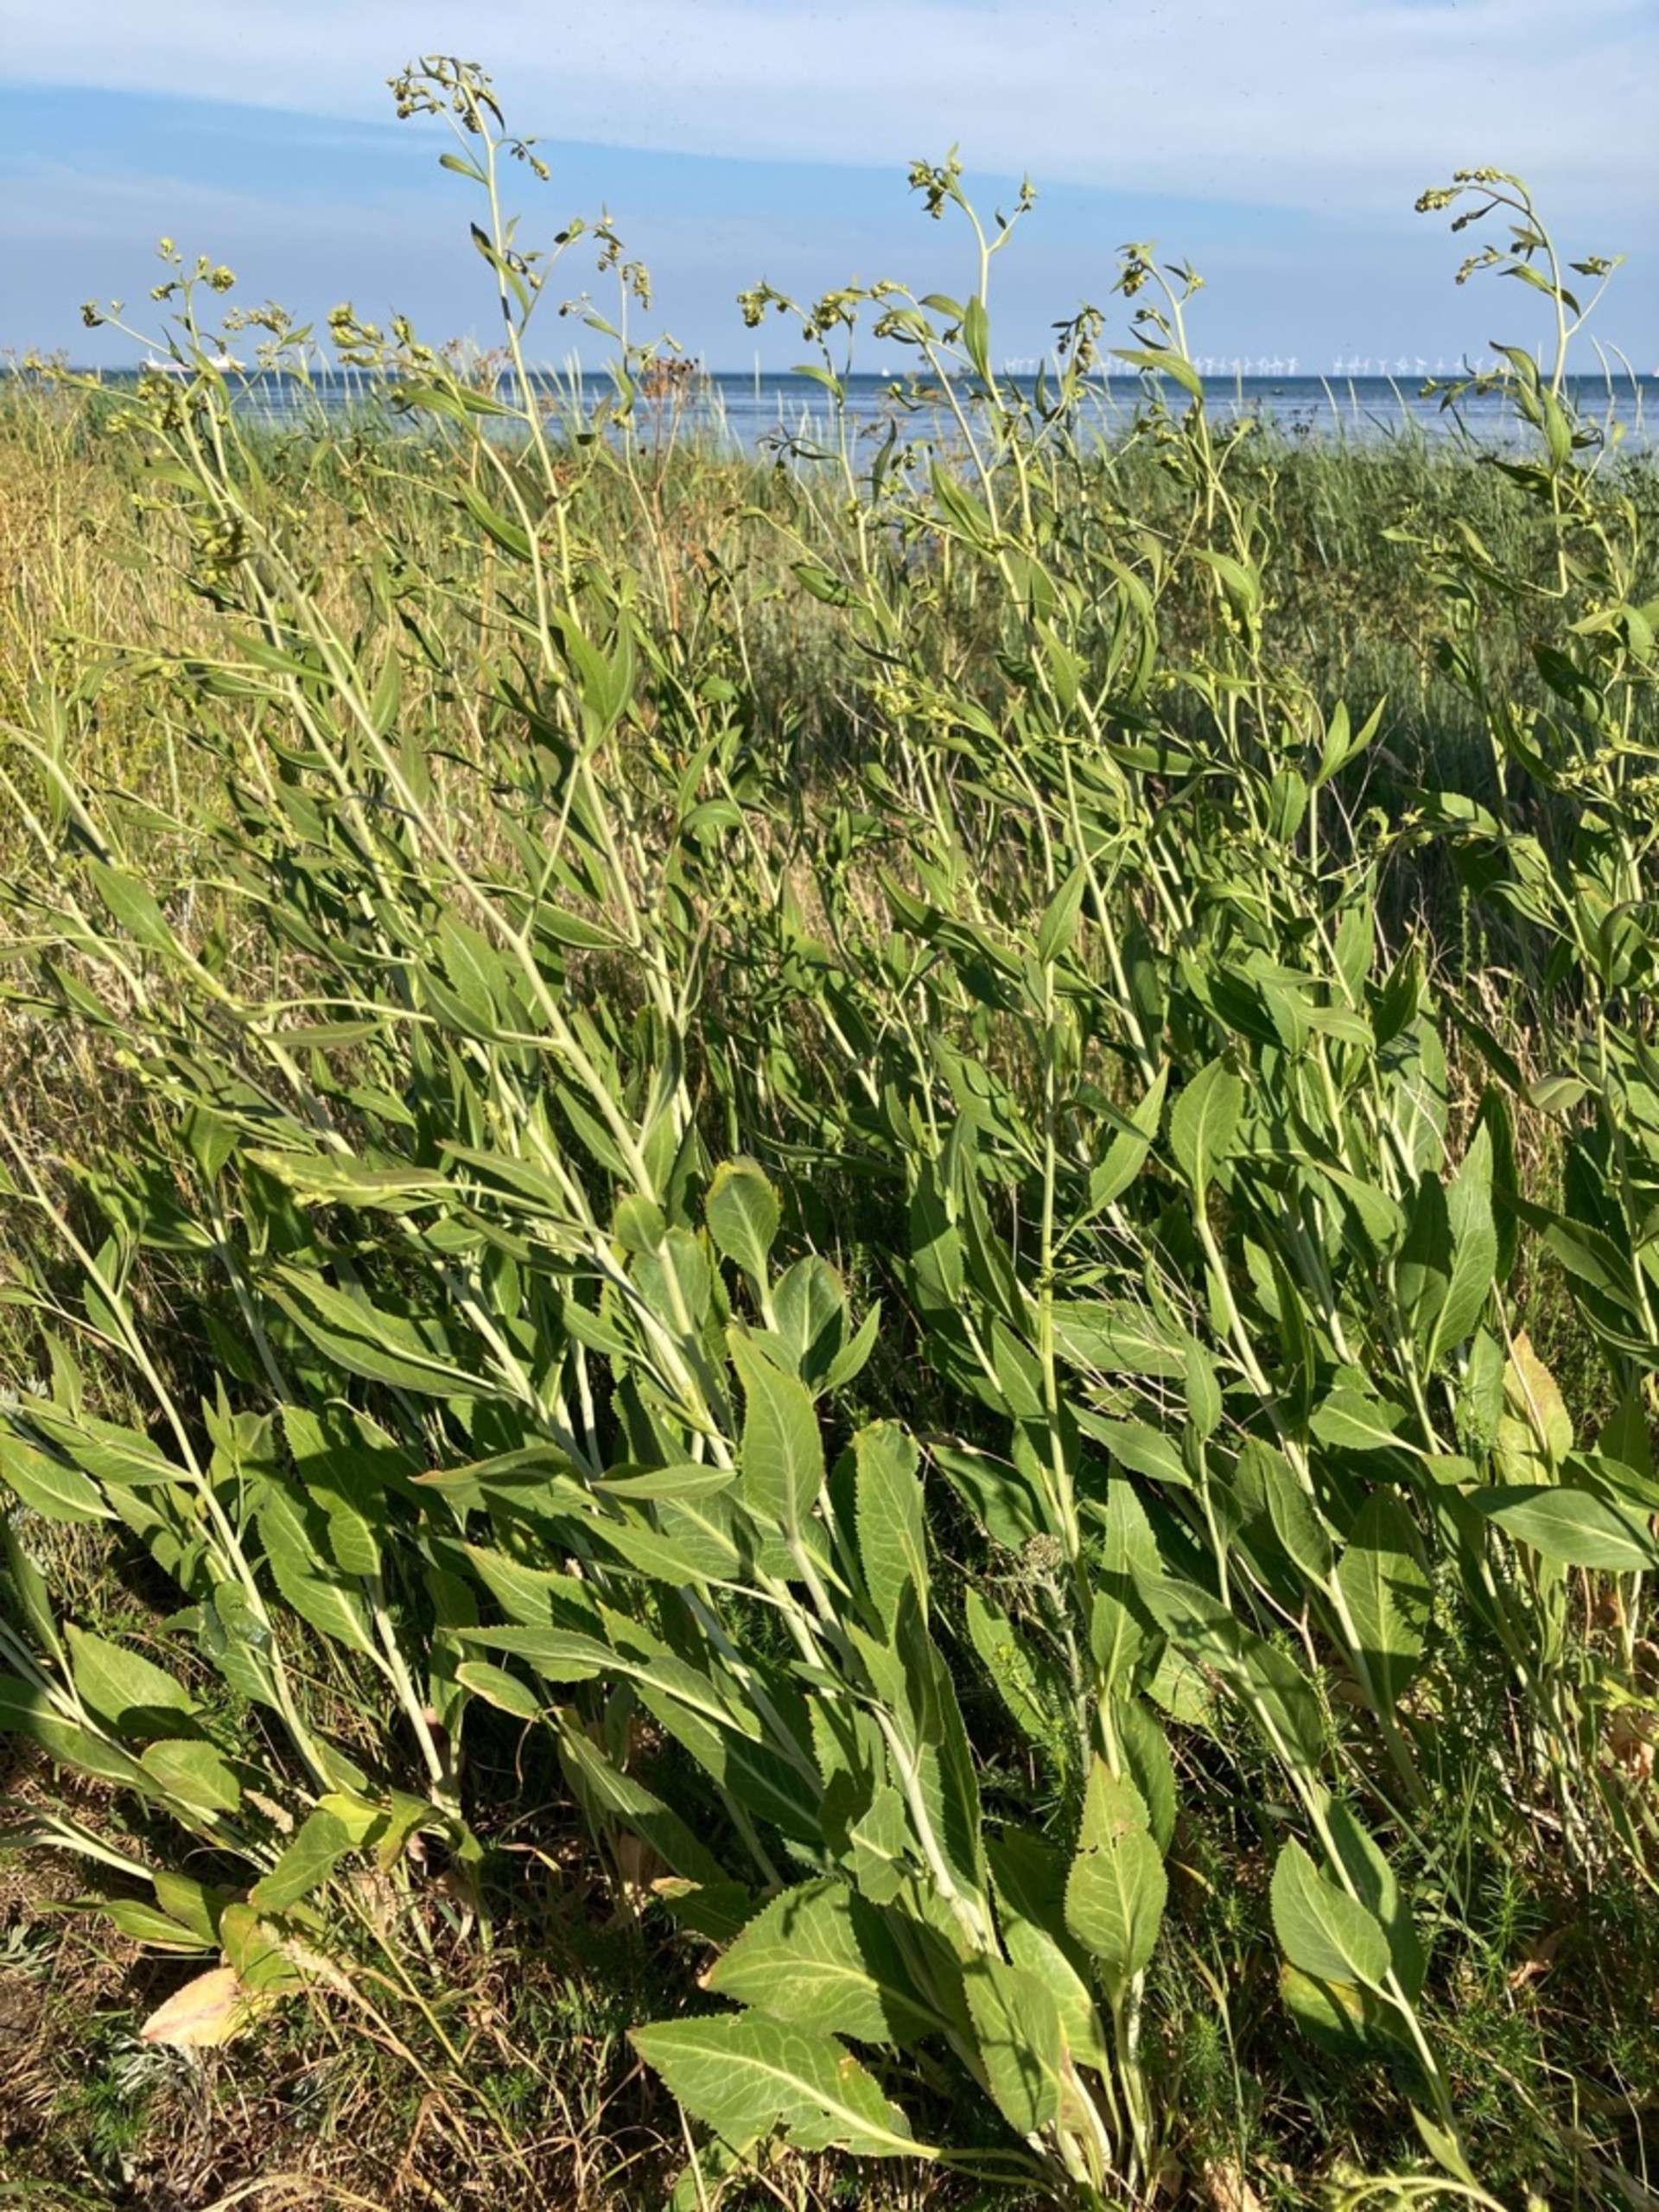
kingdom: Plantae
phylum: Tracheophyta
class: Magnoliopsida
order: Brassicales
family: Brassicaceae
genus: Lepidium
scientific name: Lepidium latifolium
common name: Strand-karse
